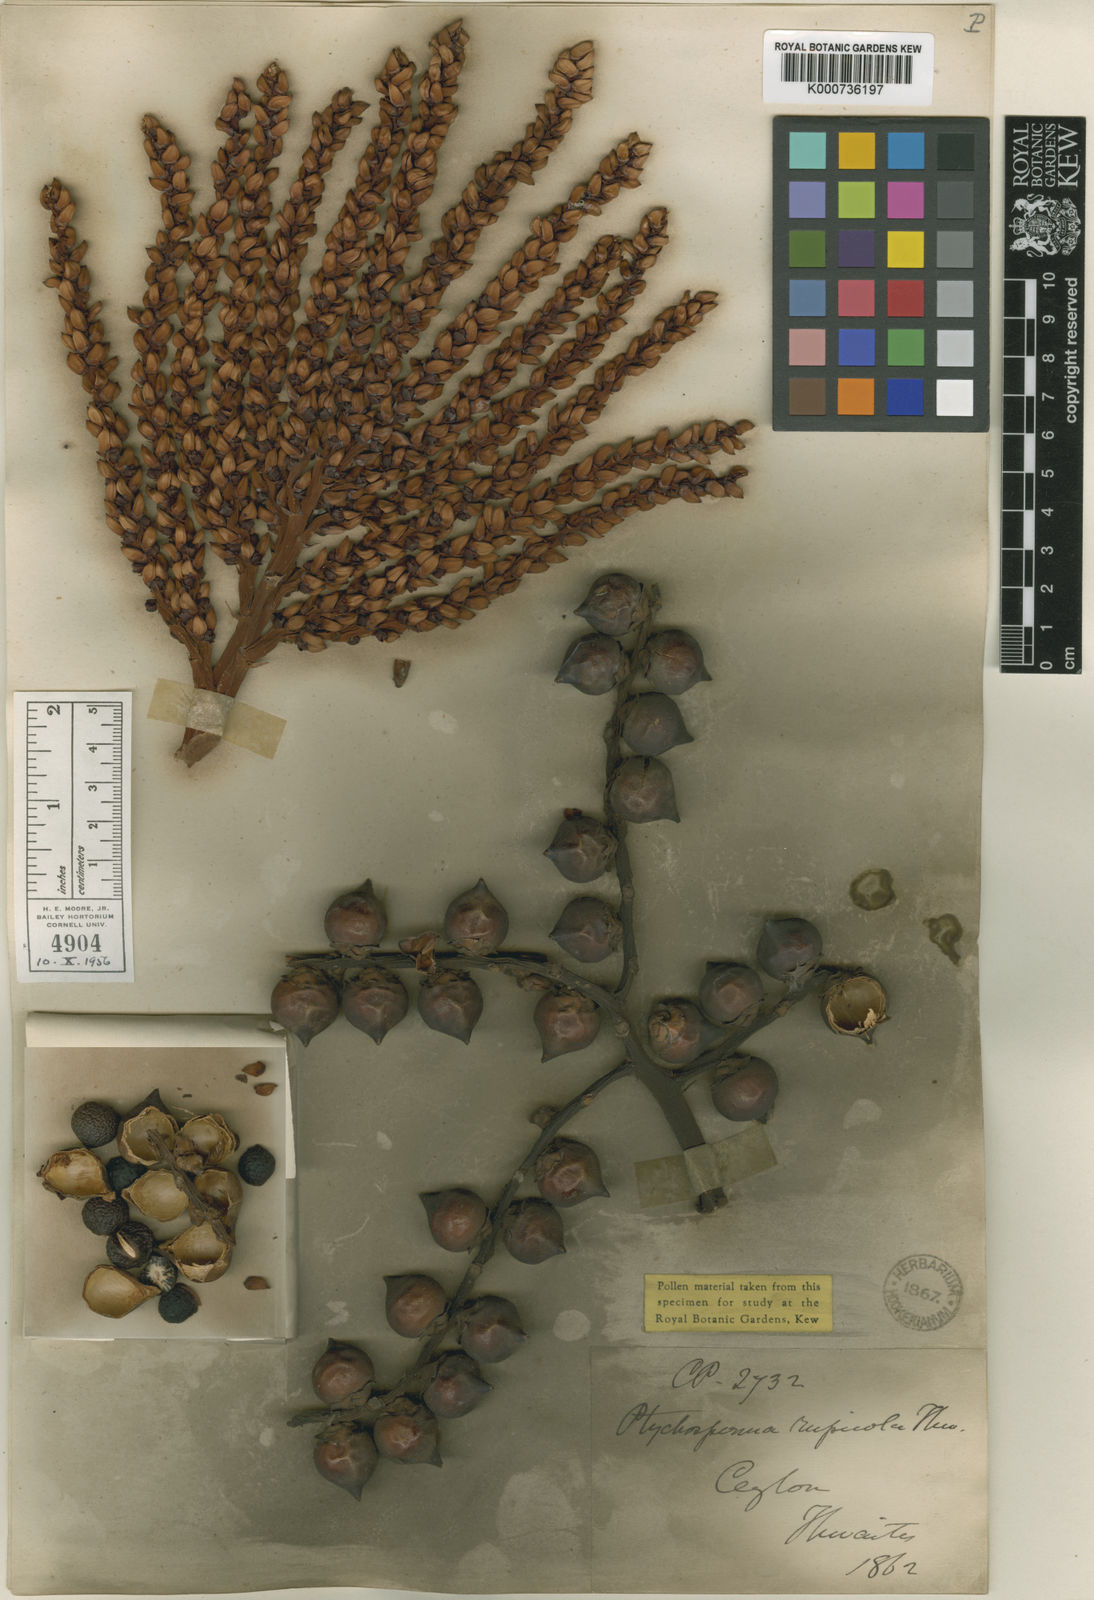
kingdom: Plantae
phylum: Tracheophyta
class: Liliopsida
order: Arecales
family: Arecaceae
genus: Loxococcus
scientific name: Loxococcus rupicola
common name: Crook-fruit palm
